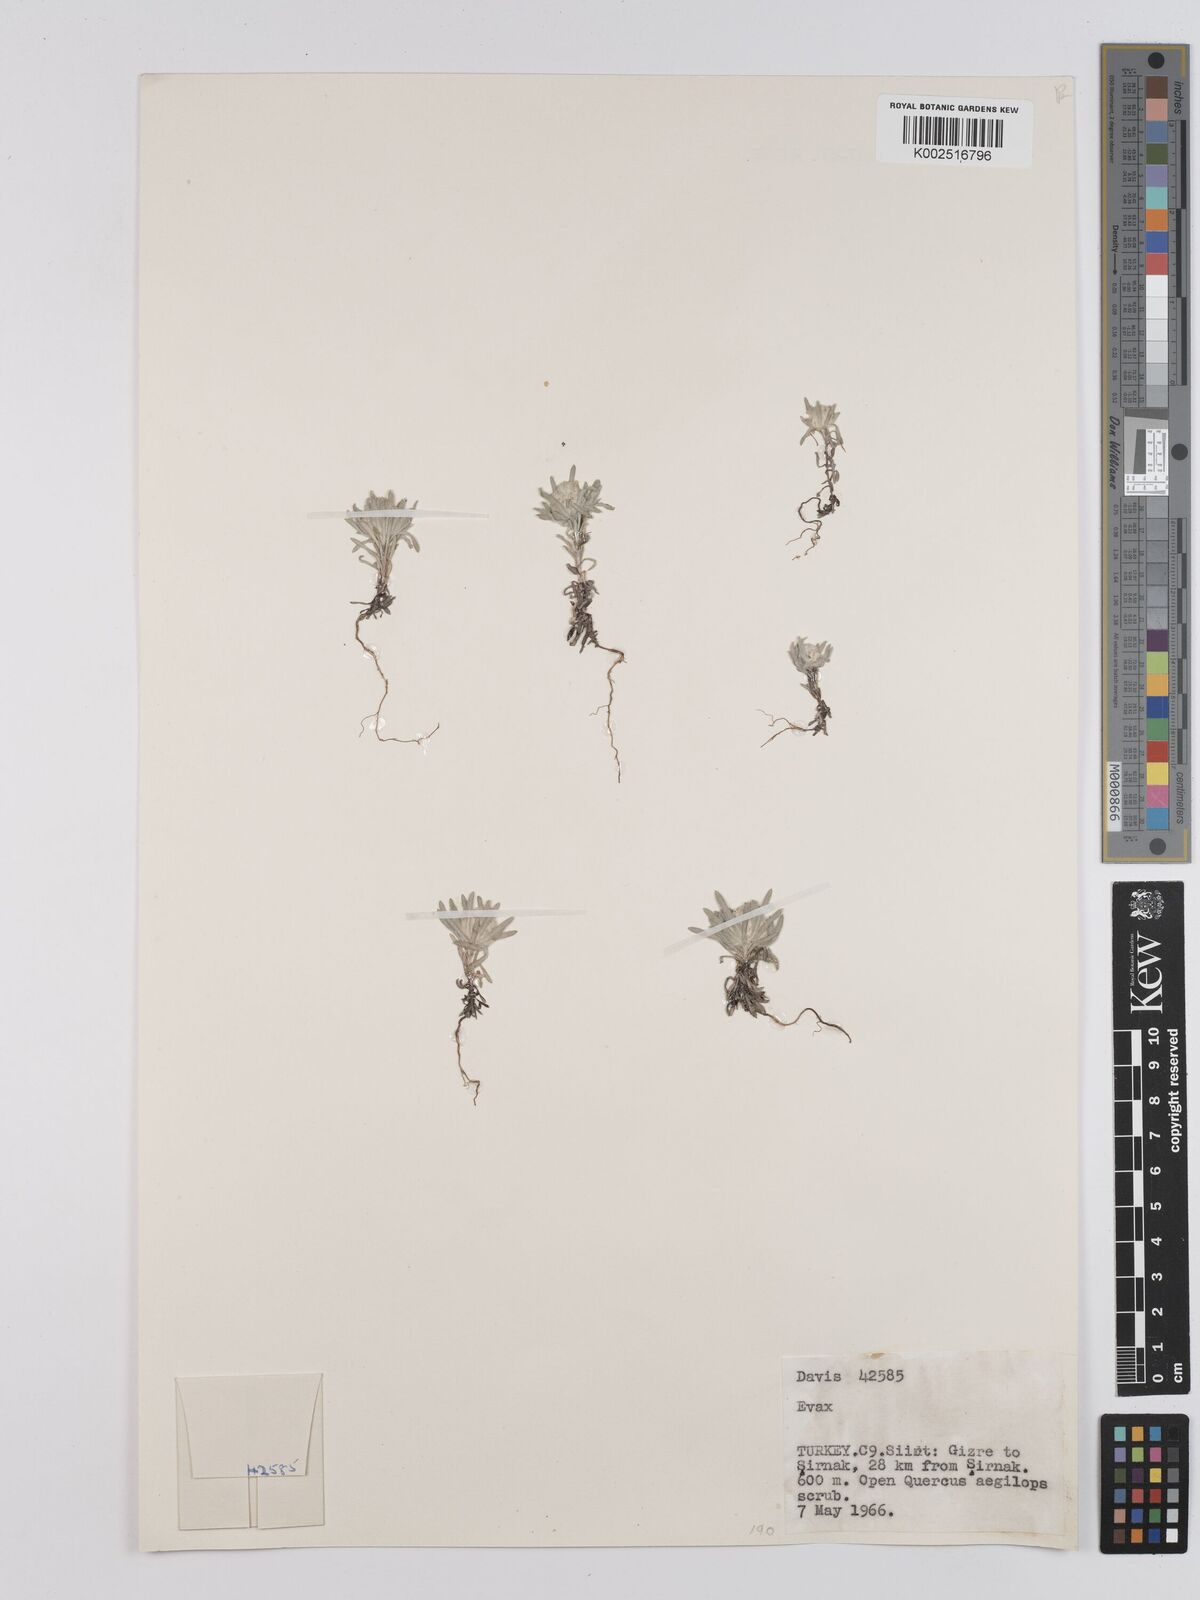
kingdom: Plantae
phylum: Tracheophyta
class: Magnoliopsida
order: Asterales
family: Asteraceae
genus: Filago
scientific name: Filago
